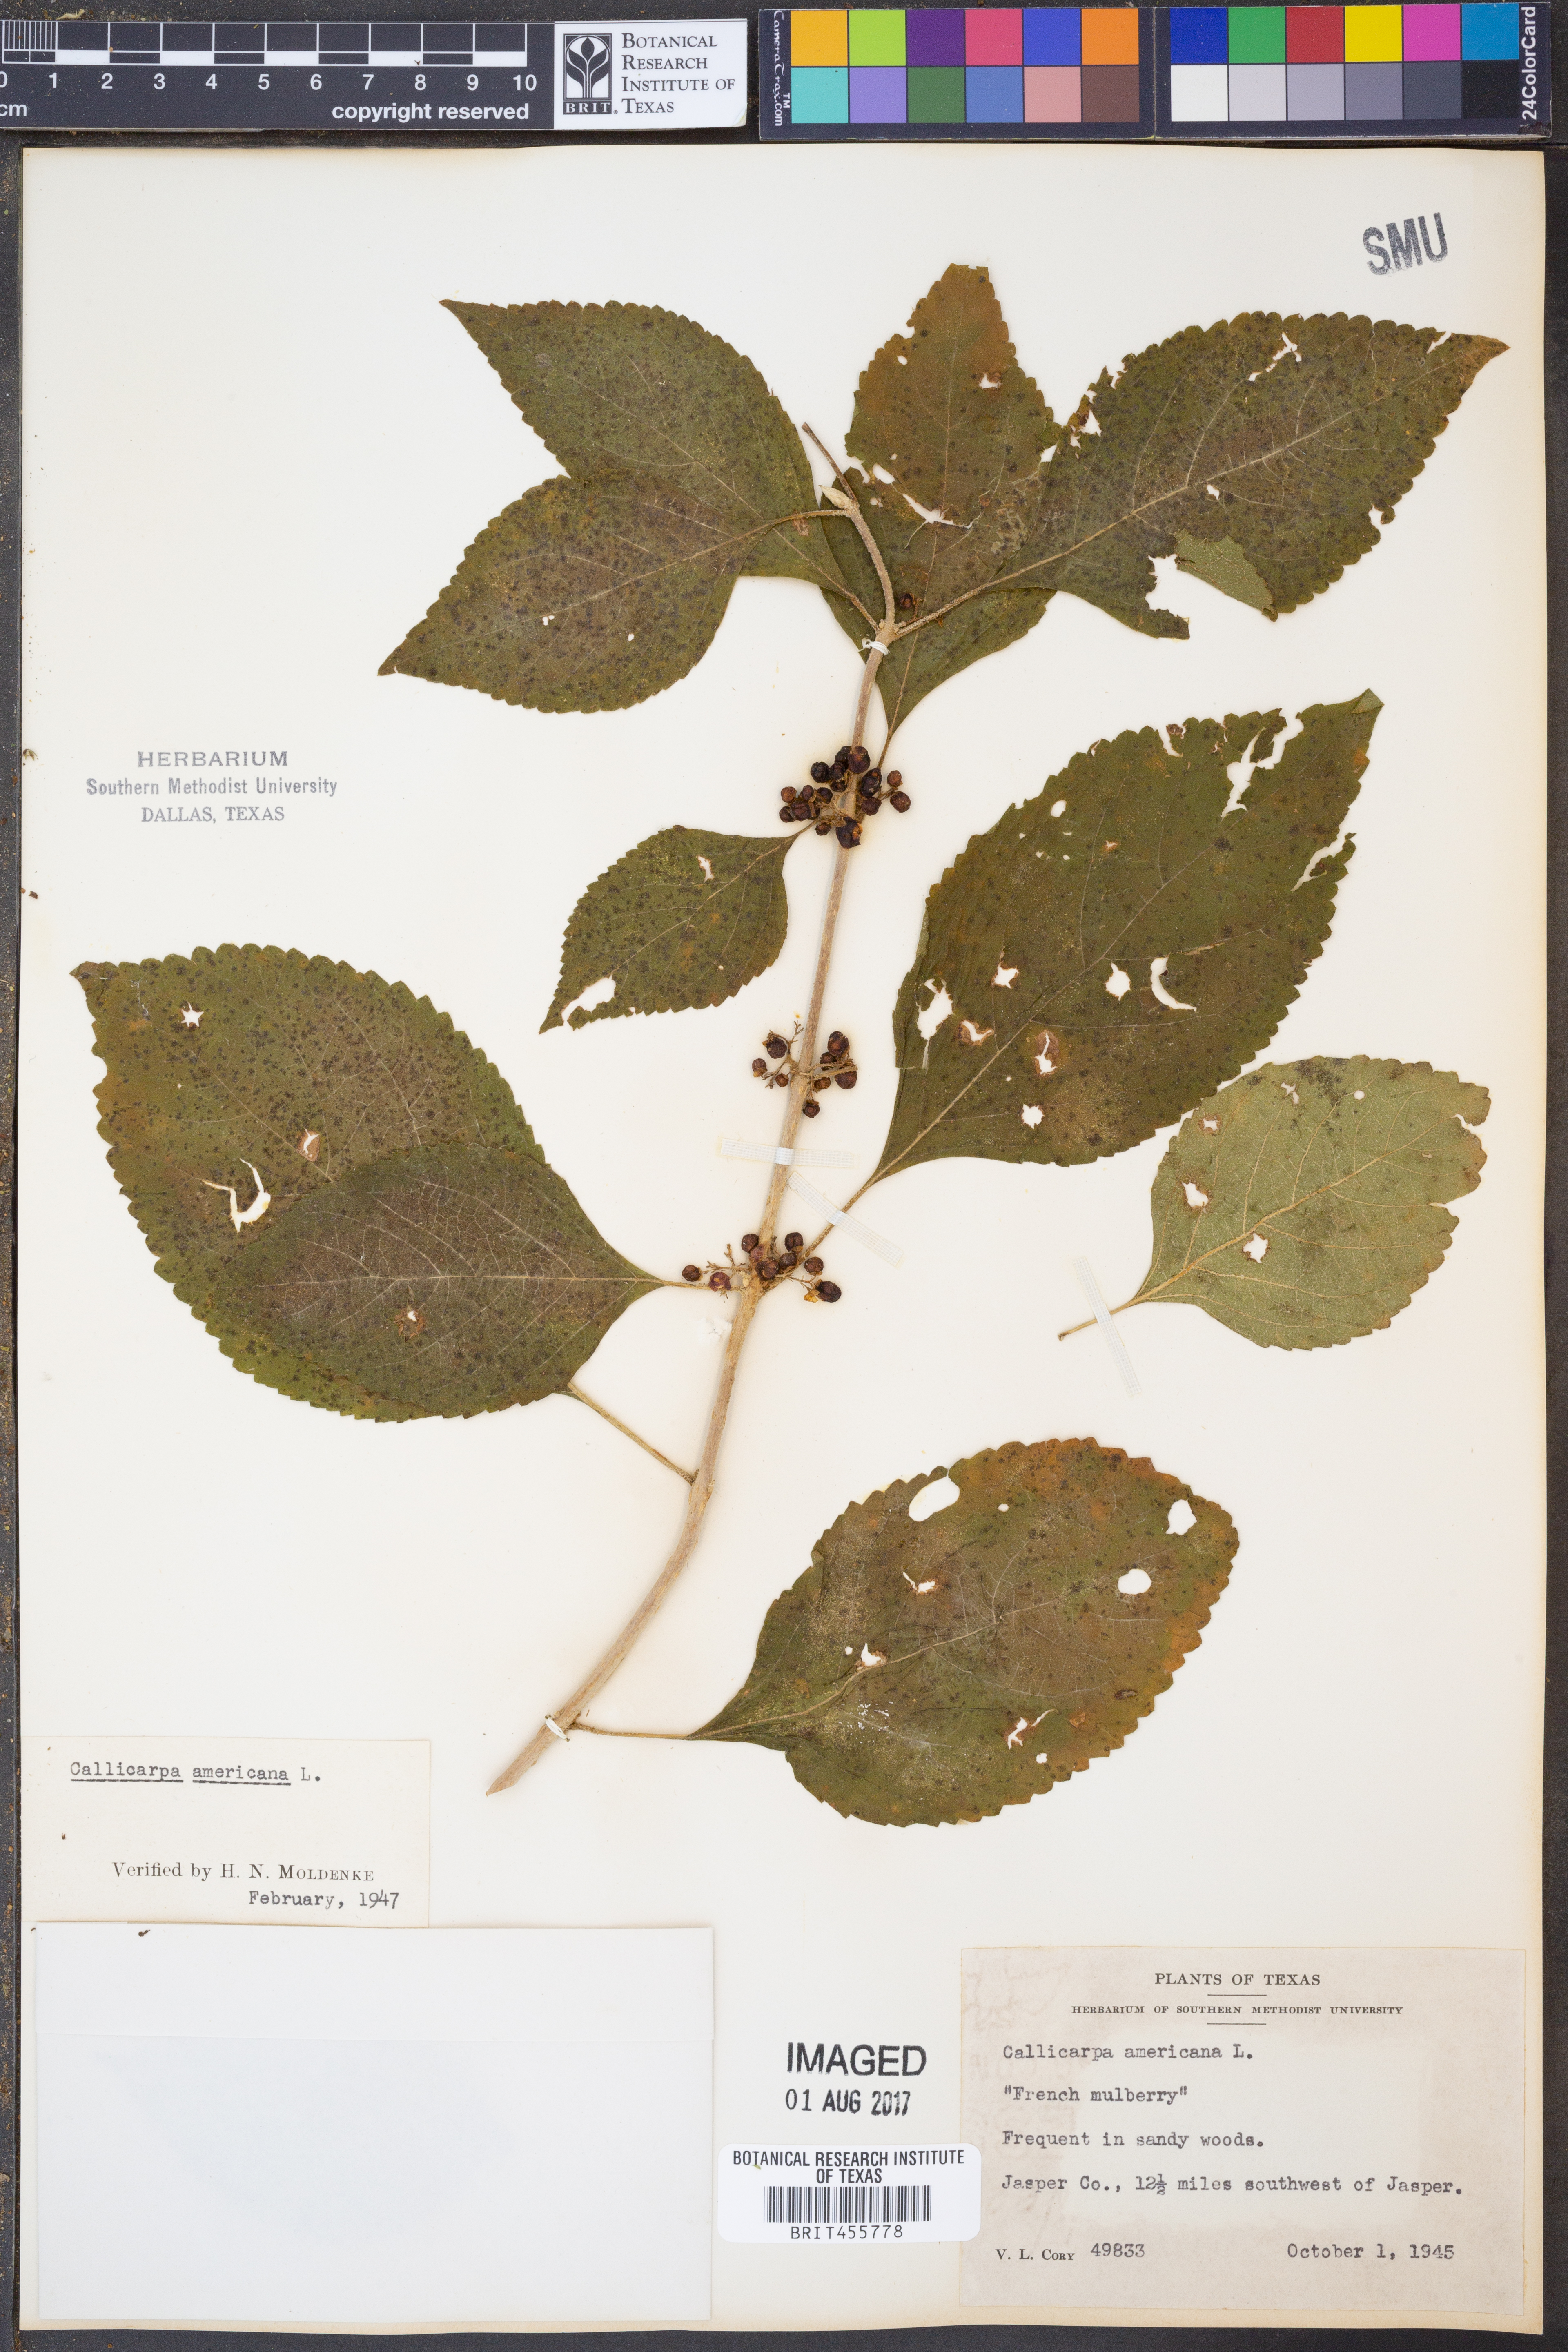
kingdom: Plantae
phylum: Tracheophyta
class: Magnoliopsida
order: Lamiales
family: Lamiaceae
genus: Callicarpa
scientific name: Callicarpa americana
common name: American beautyberry
